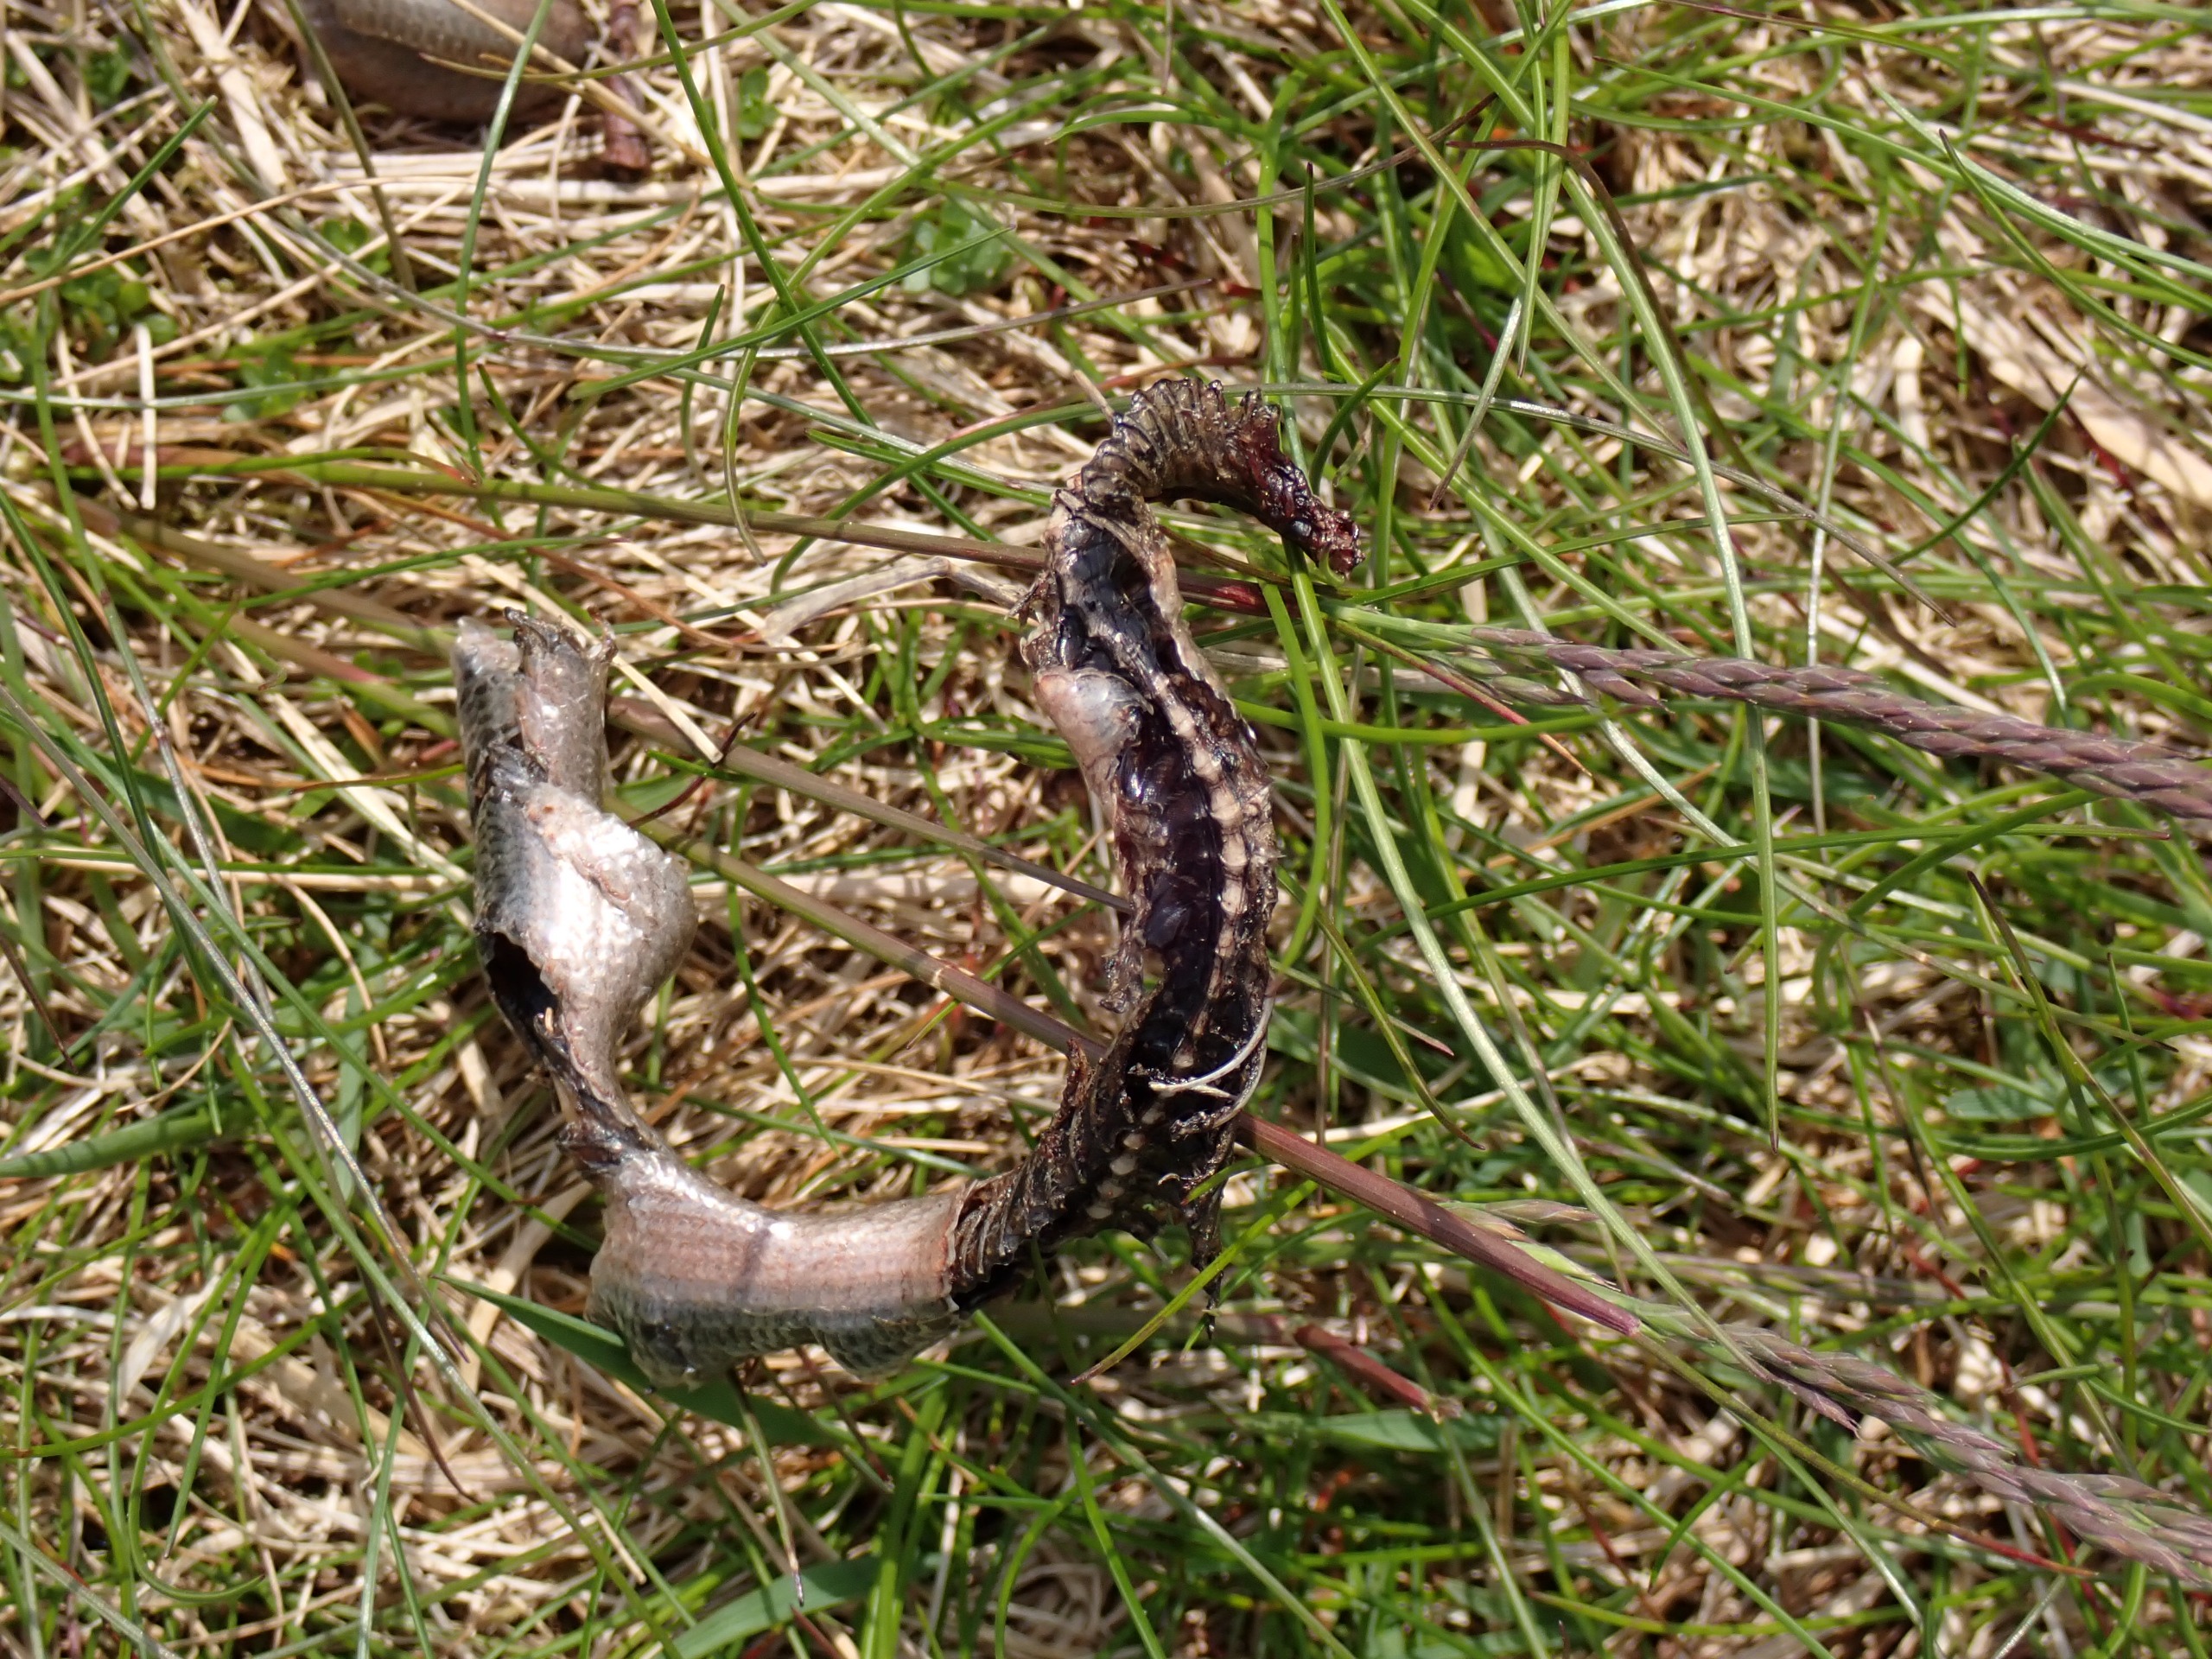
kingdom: Animalia
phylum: Chordata
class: Squamata
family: Anguidae
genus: Anguis
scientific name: Anguis fragilis
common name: Stålorm
